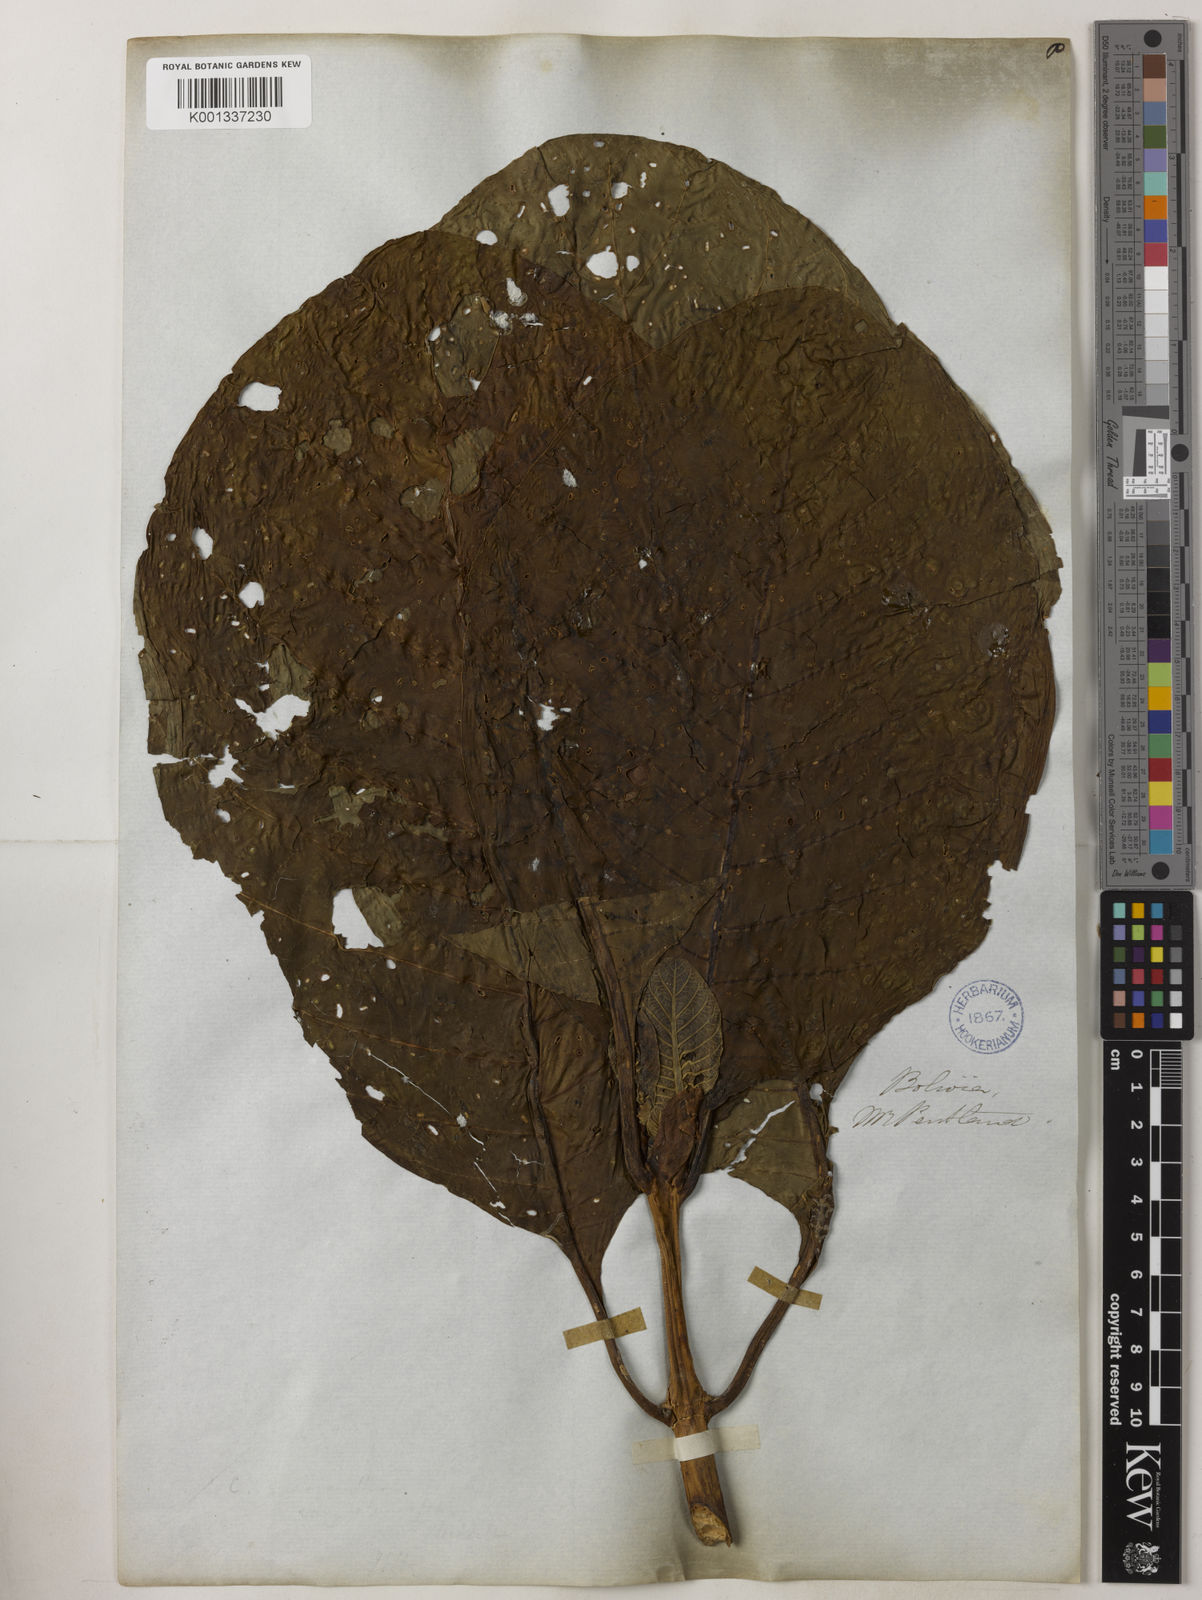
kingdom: Plantae
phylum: Tracheophyta
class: Magnoliopsida
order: Gentianales
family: Rubiaceae
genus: Cinchona
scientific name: Cinchona micrantha
